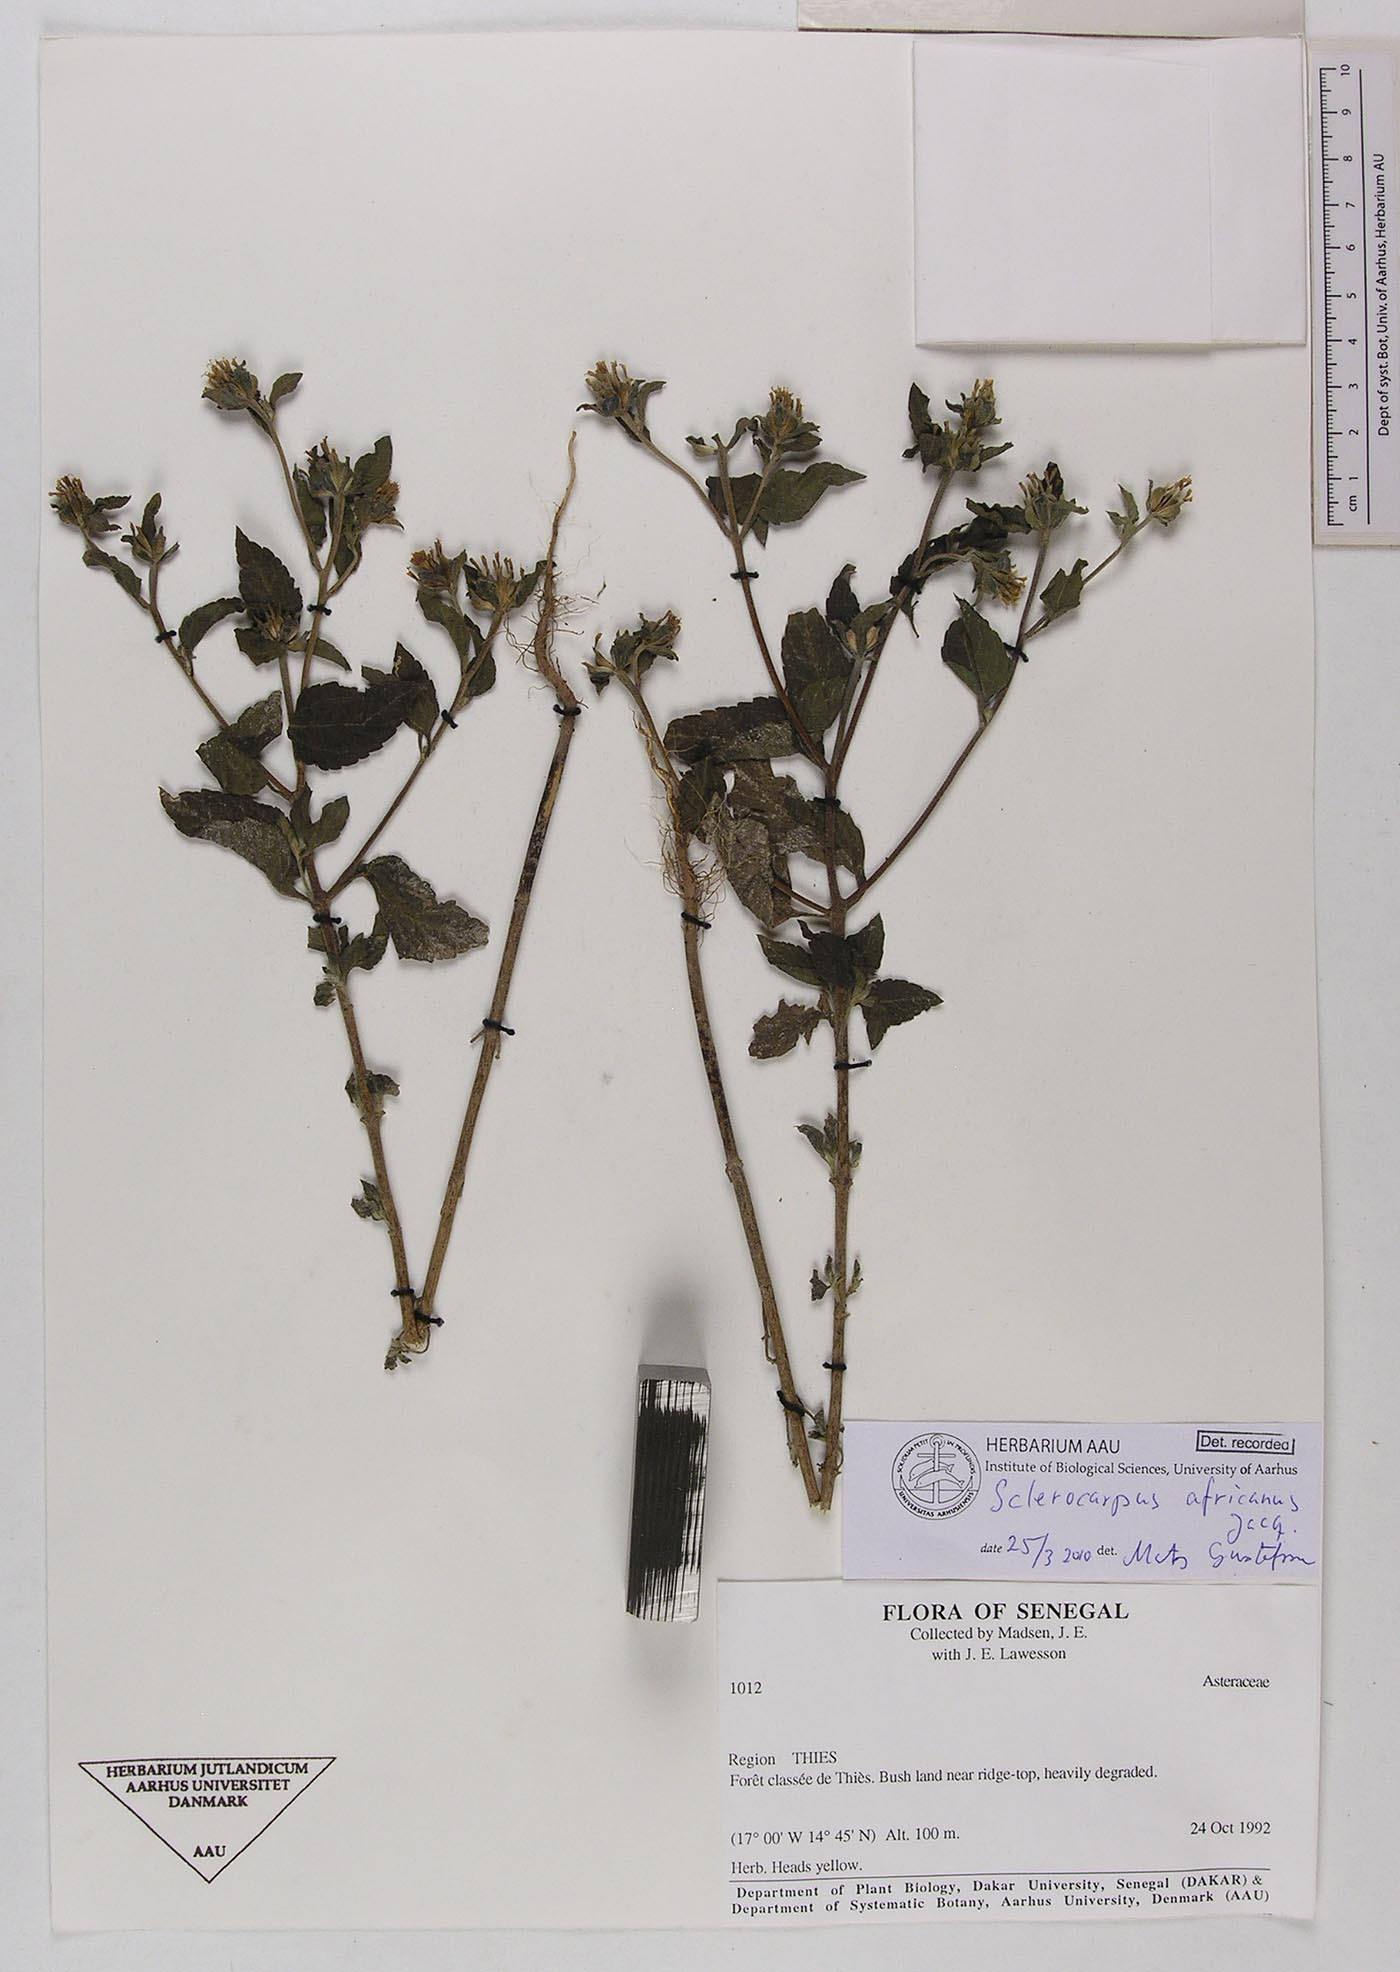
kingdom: Plantae
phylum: Tracheophyta
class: Magnoliopsida
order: Asterales
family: Asteraceae
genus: Sclerocarpus
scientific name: Sclerocarpus africanus
